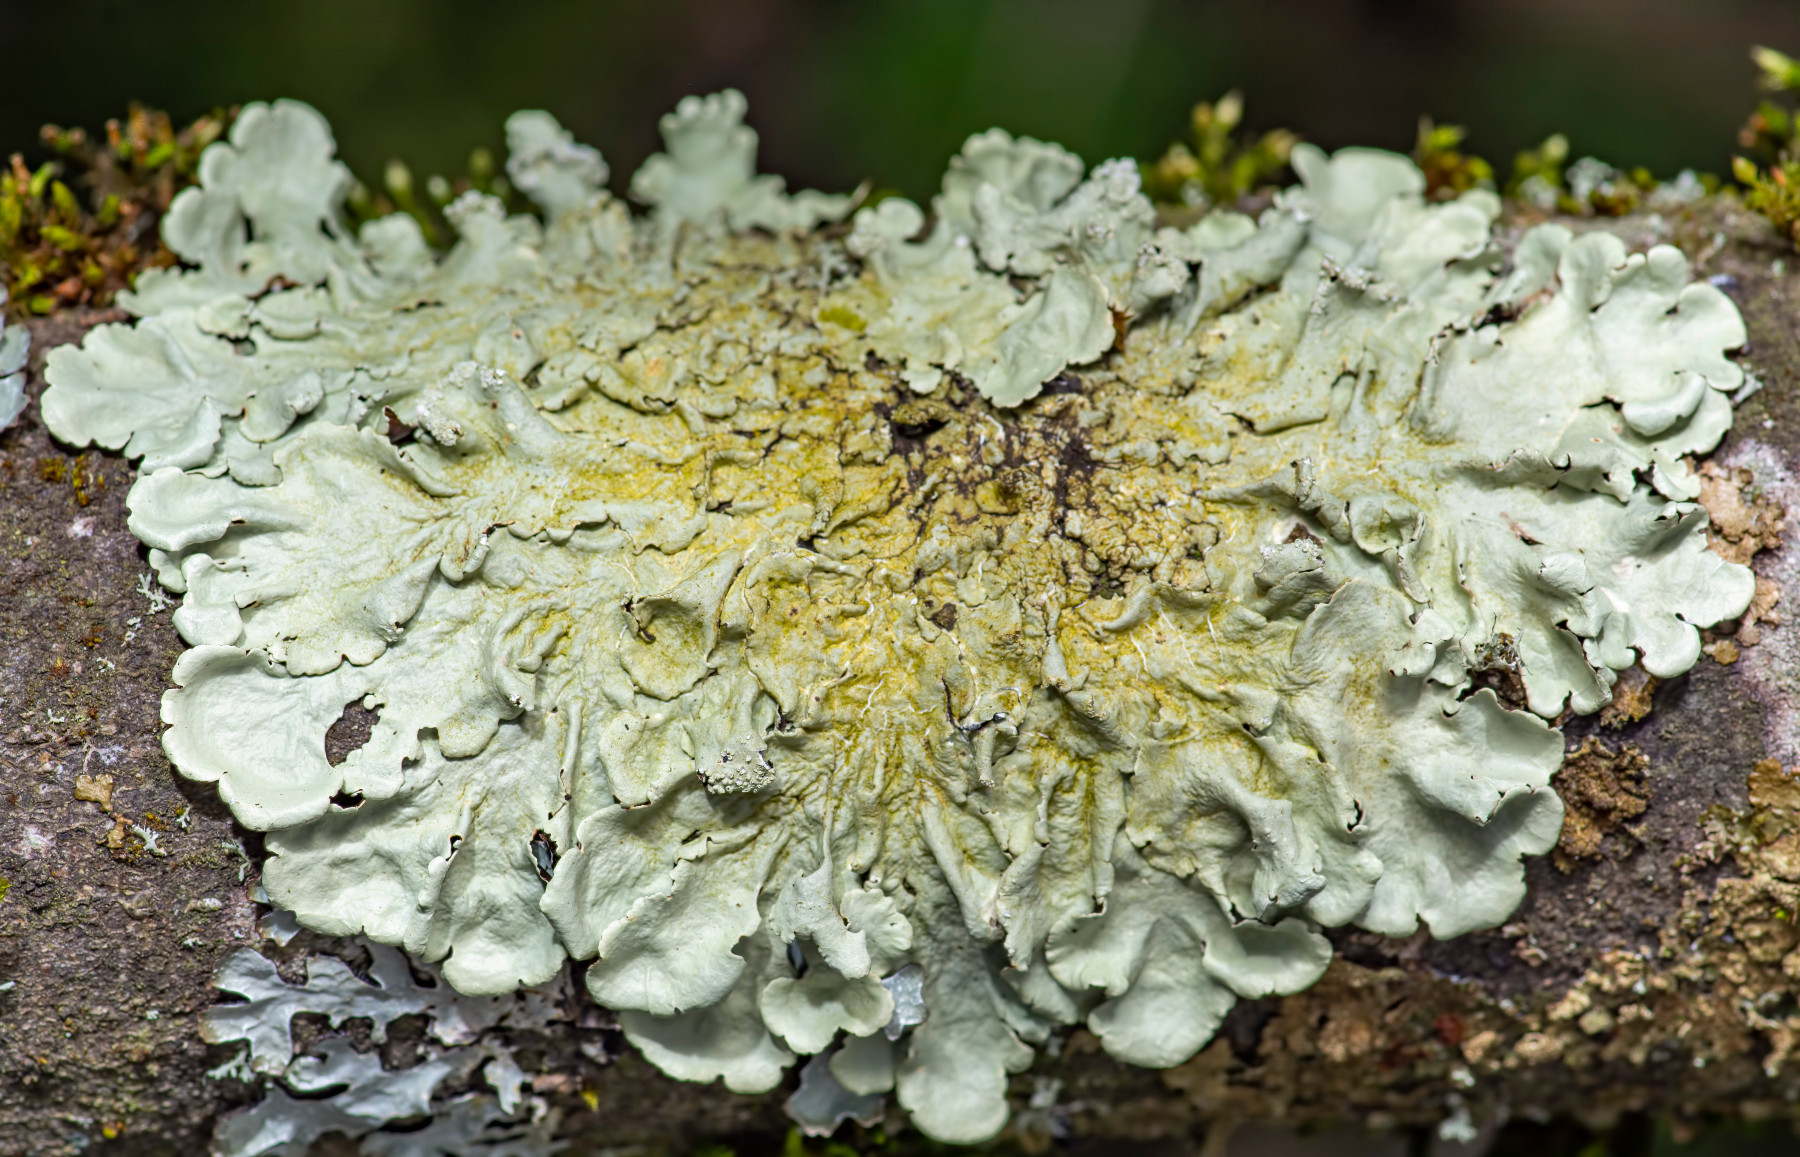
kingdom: Fungi
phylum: Ascomycota
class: Lecanoromycetes
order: Lecanorales
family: Parmeliaceae
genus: Flavoparmelia
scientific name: Flavoparmelia caperata
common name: gulgrøn skållav
